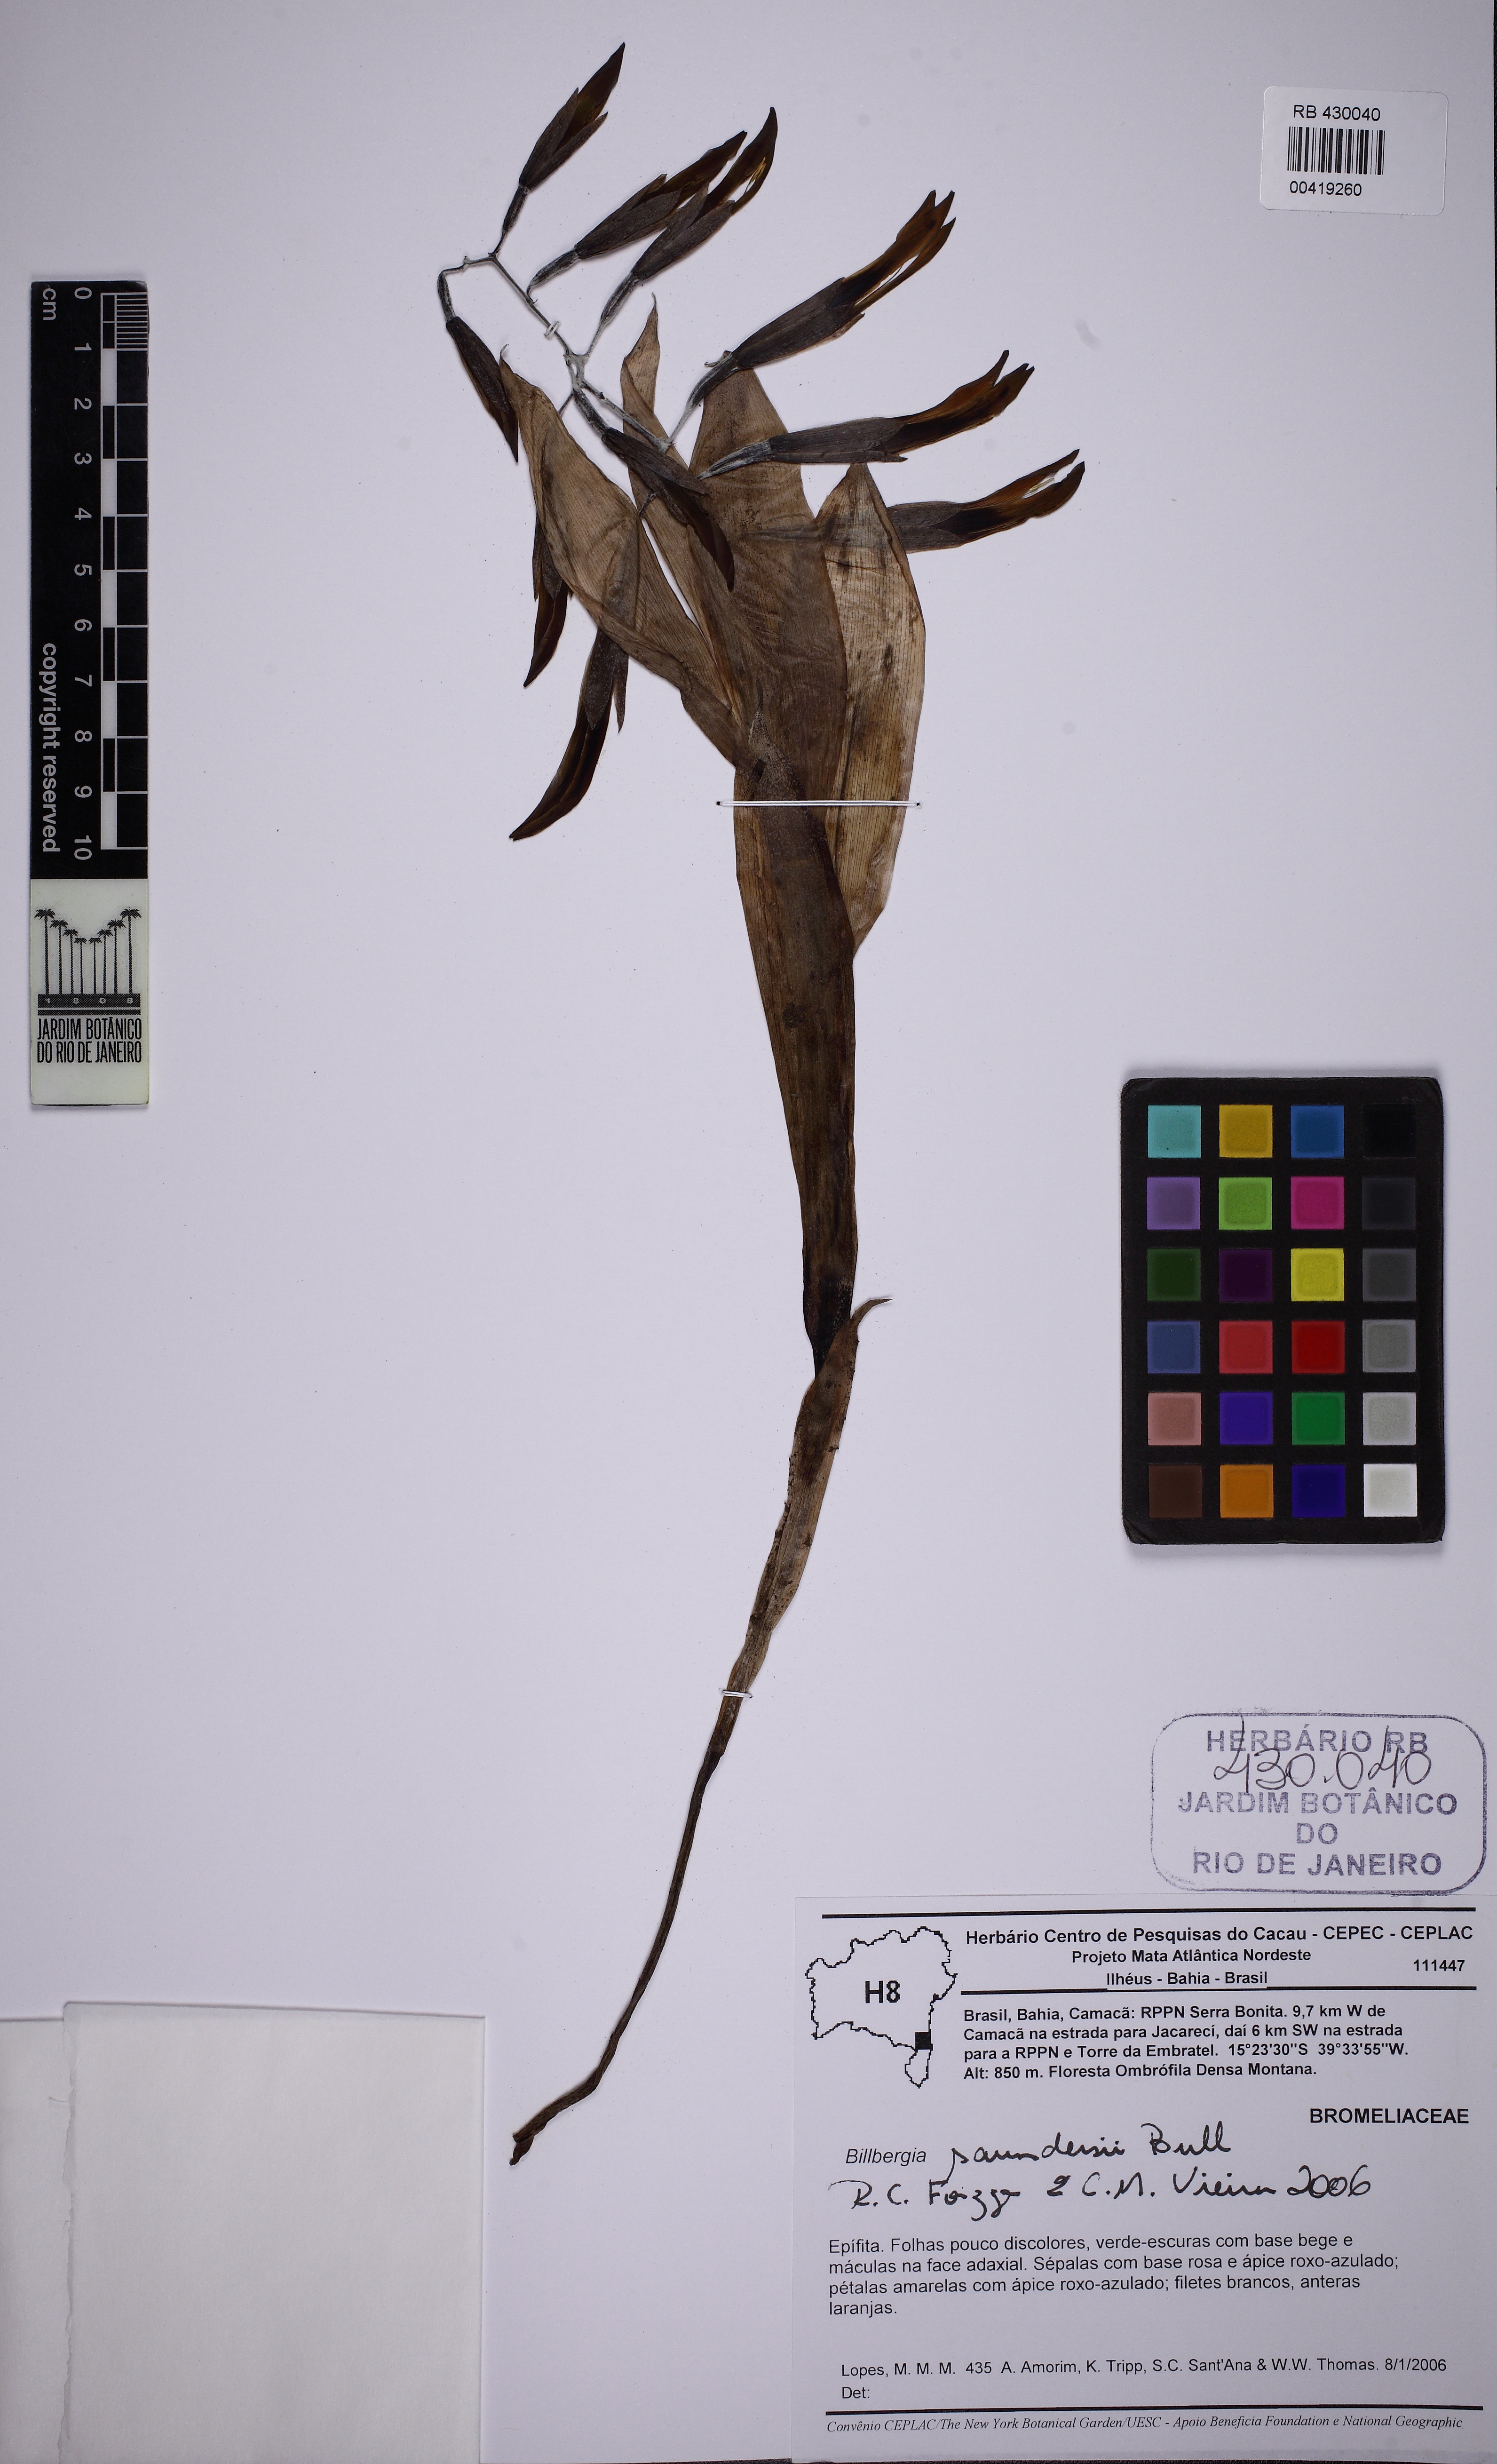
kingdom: Plantae
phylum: Tracheophyta
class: Liliopsida
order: Poales
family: Bromeliaceae
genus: Billbergia
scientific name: Billbergia saundersii
